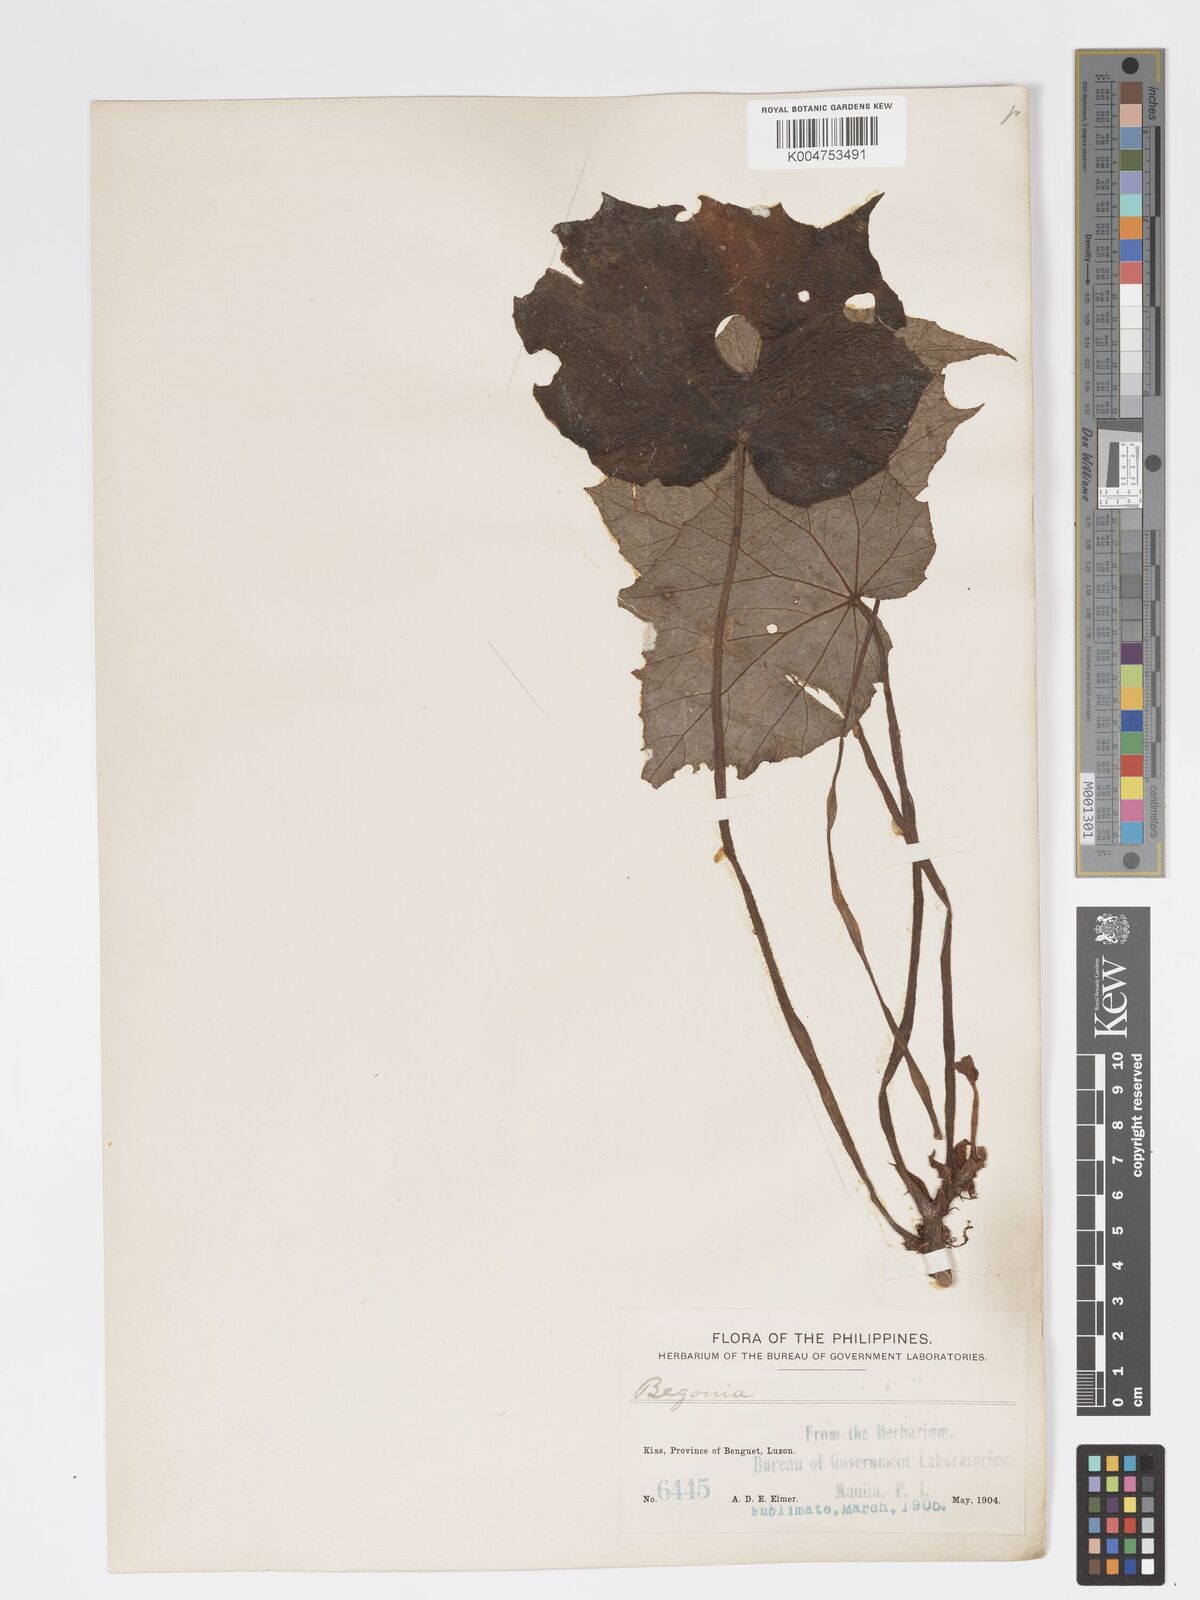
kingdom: Plantae
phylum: Tracheophyta
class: Magnoliopsida
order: Cucurbitales
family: Begoniaceae
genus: Begonia
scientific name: Begonia
